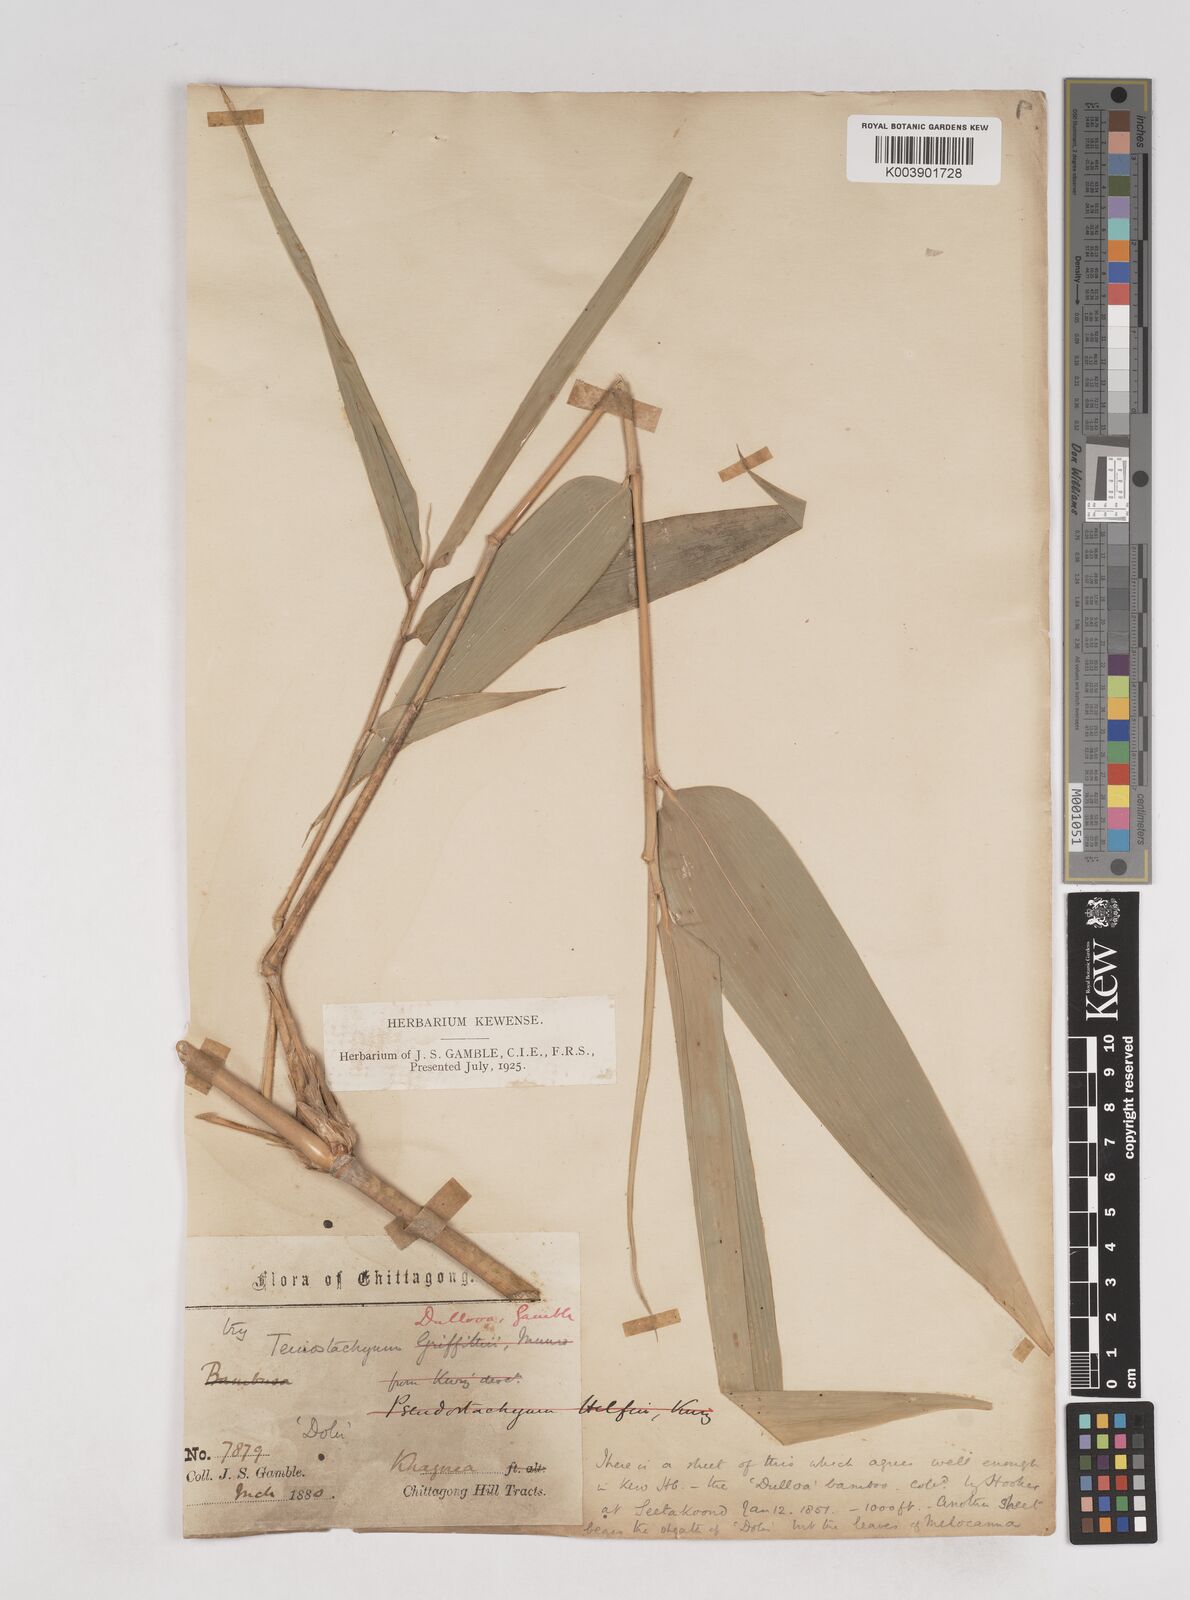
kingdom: Plantae
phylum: Tracheophyta
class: Liliopsida
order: Poales
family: Poaceae
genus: Schizostachyum
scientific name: Schizostachyum dullooa
